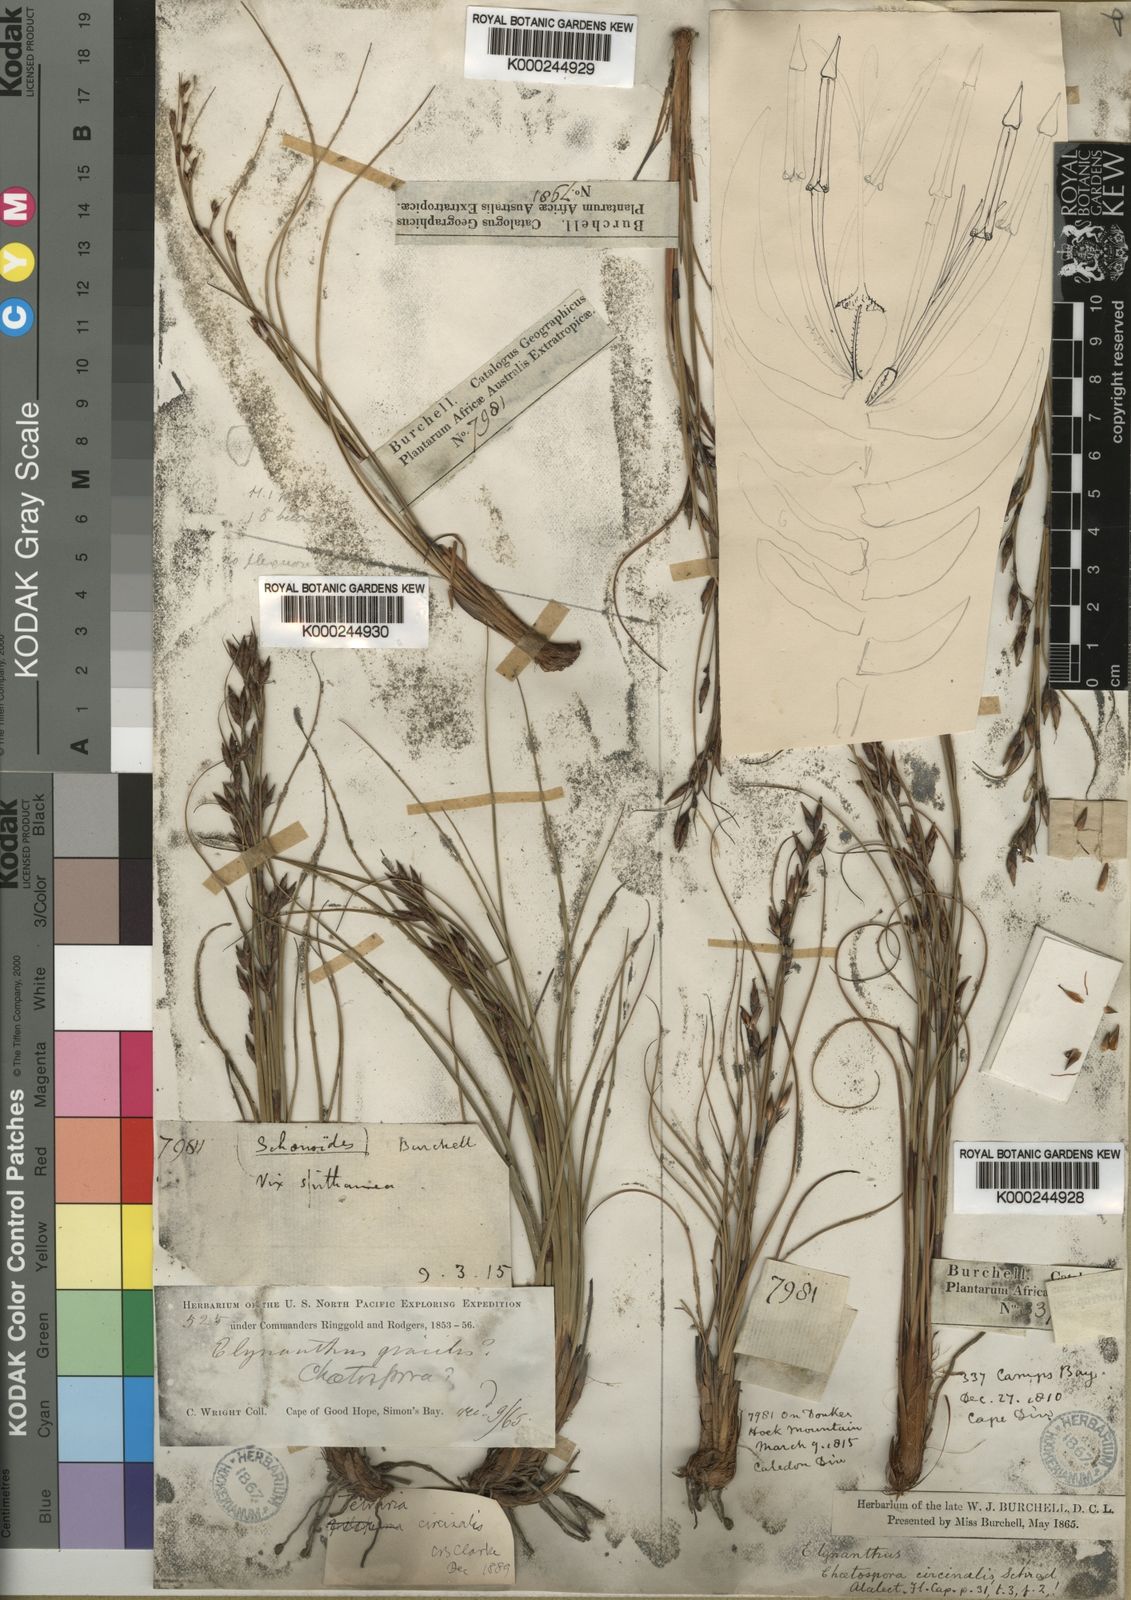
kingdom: Plantae
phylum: Tracheophyta
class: Liliopsida
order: Poales
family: Cyperaceae
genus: Tetraria
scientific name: Tetraria microstachys
